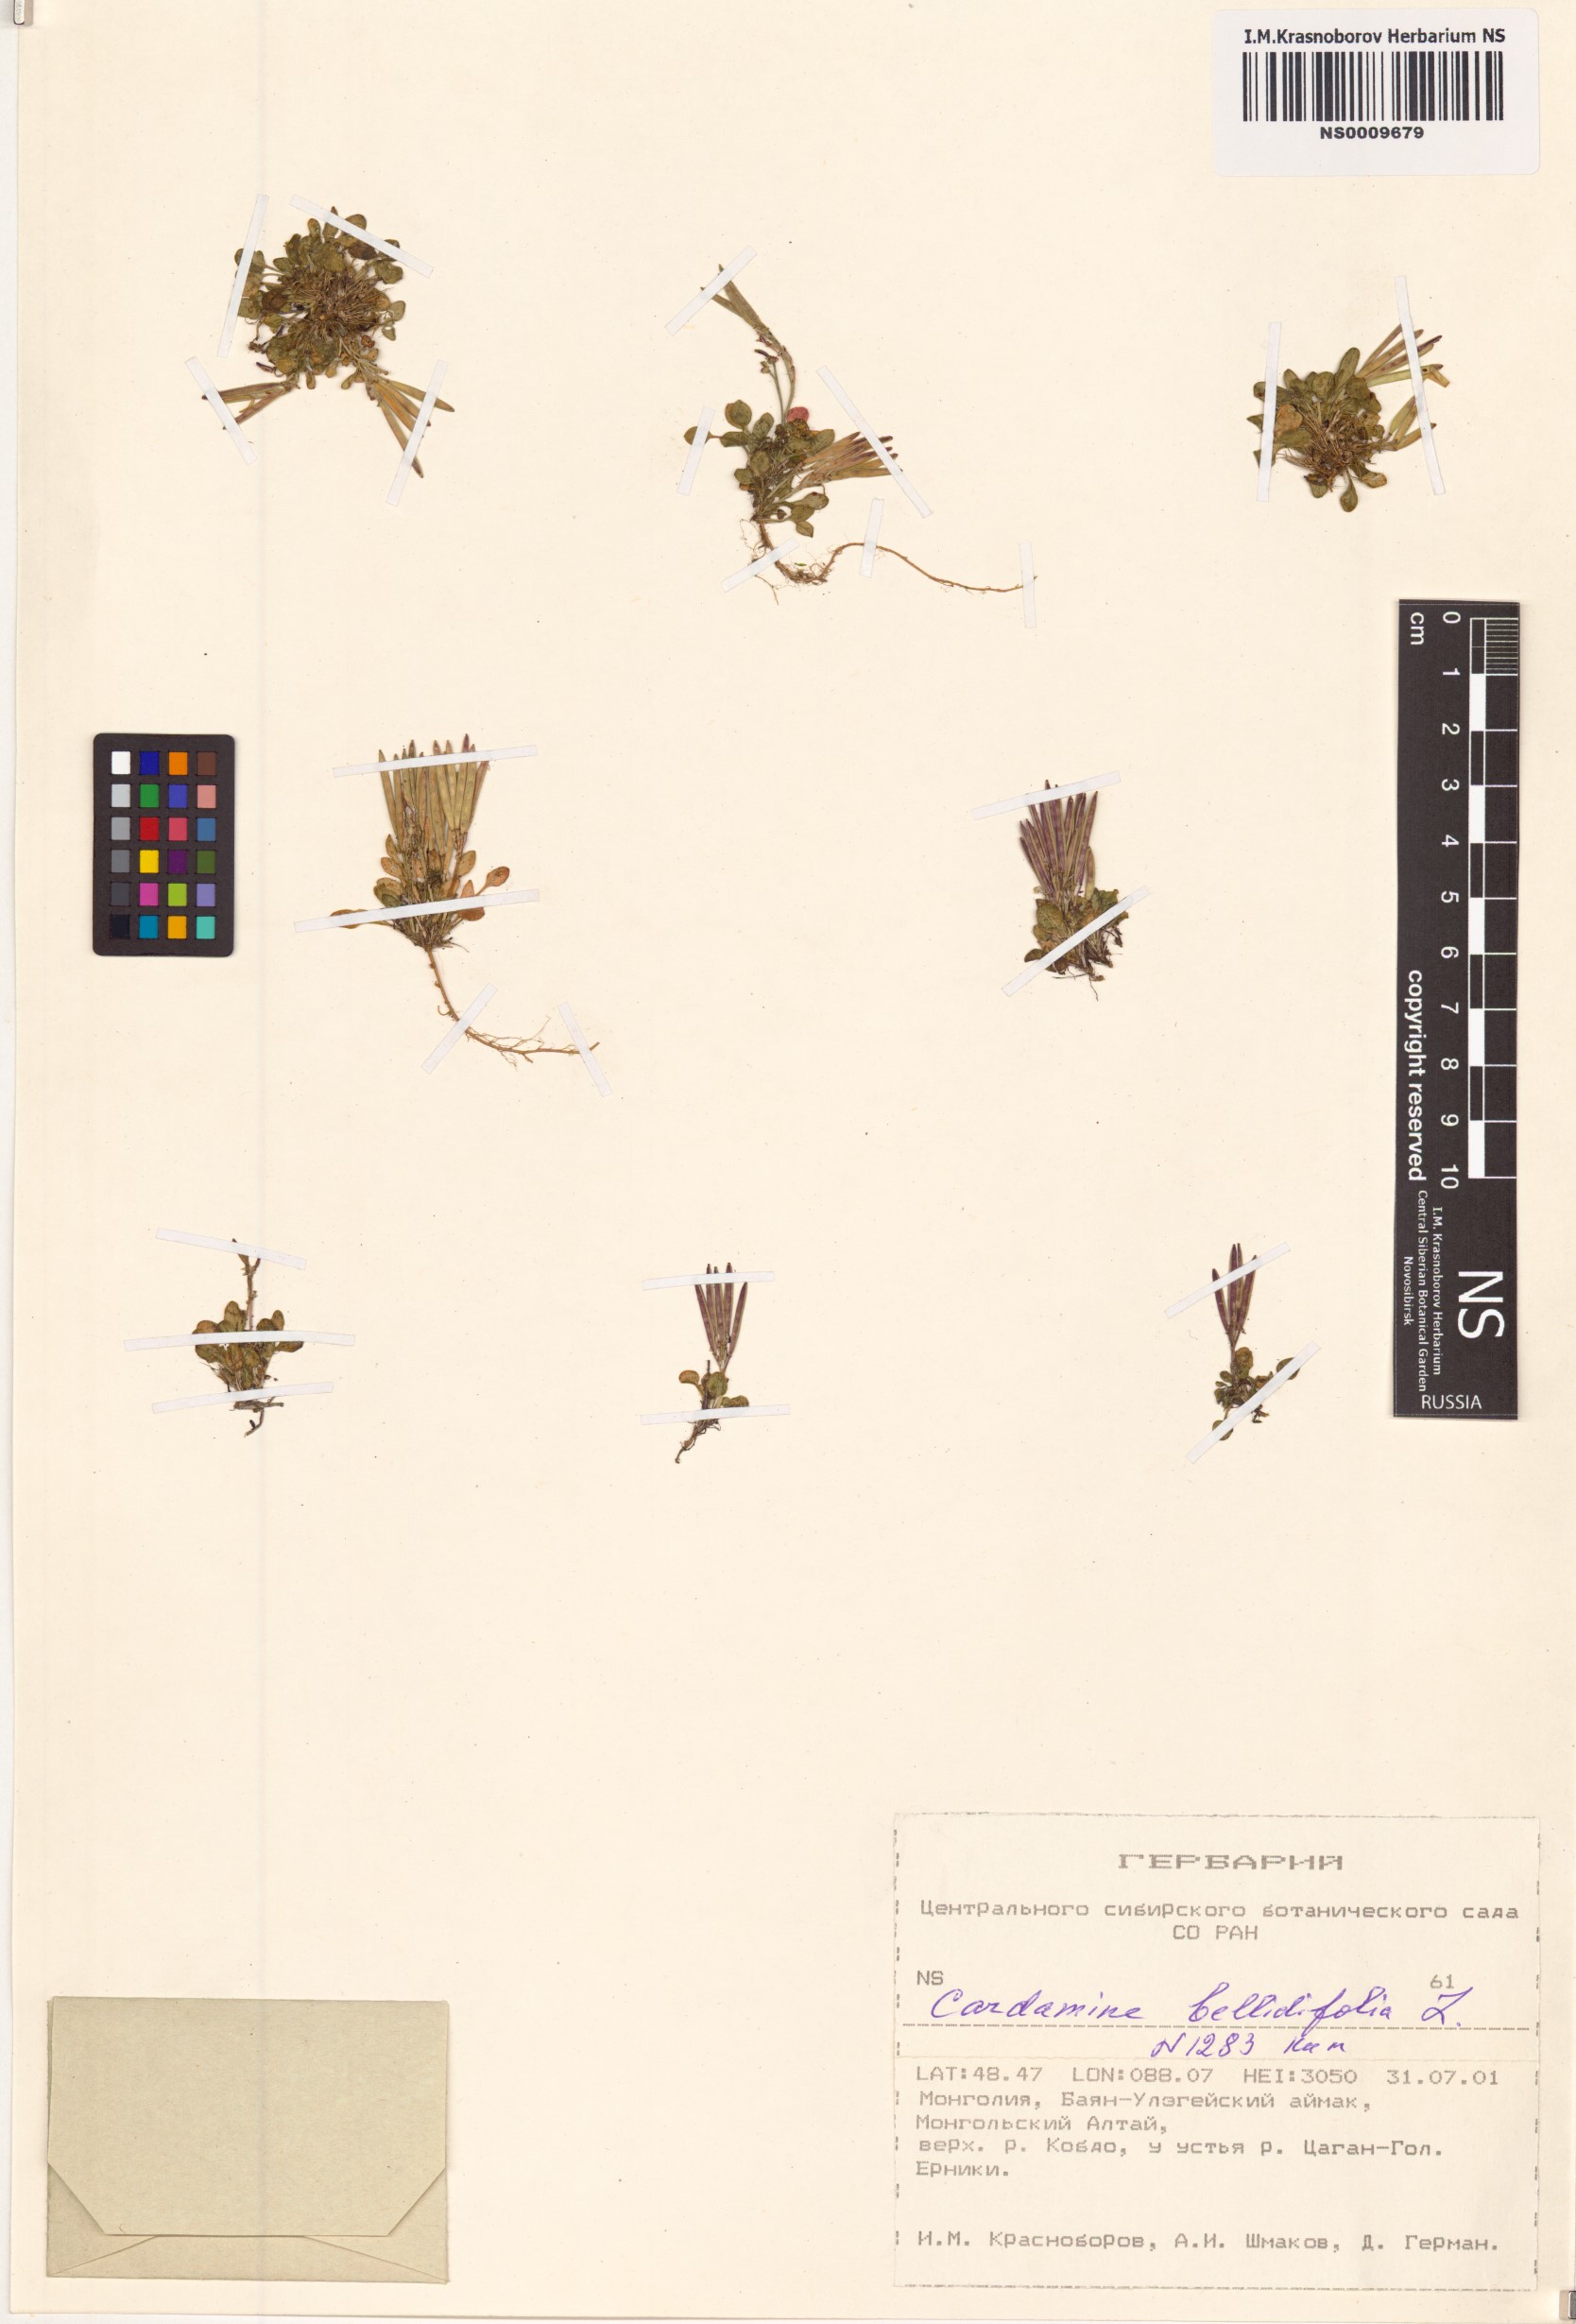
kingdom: Plantae
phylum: Tracheophyta
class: Magnoliopsida
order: Brassicales
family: Brassicaceae
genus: Cardamine
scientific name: Cardamine bellidifolia
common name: Alpine bittercress
